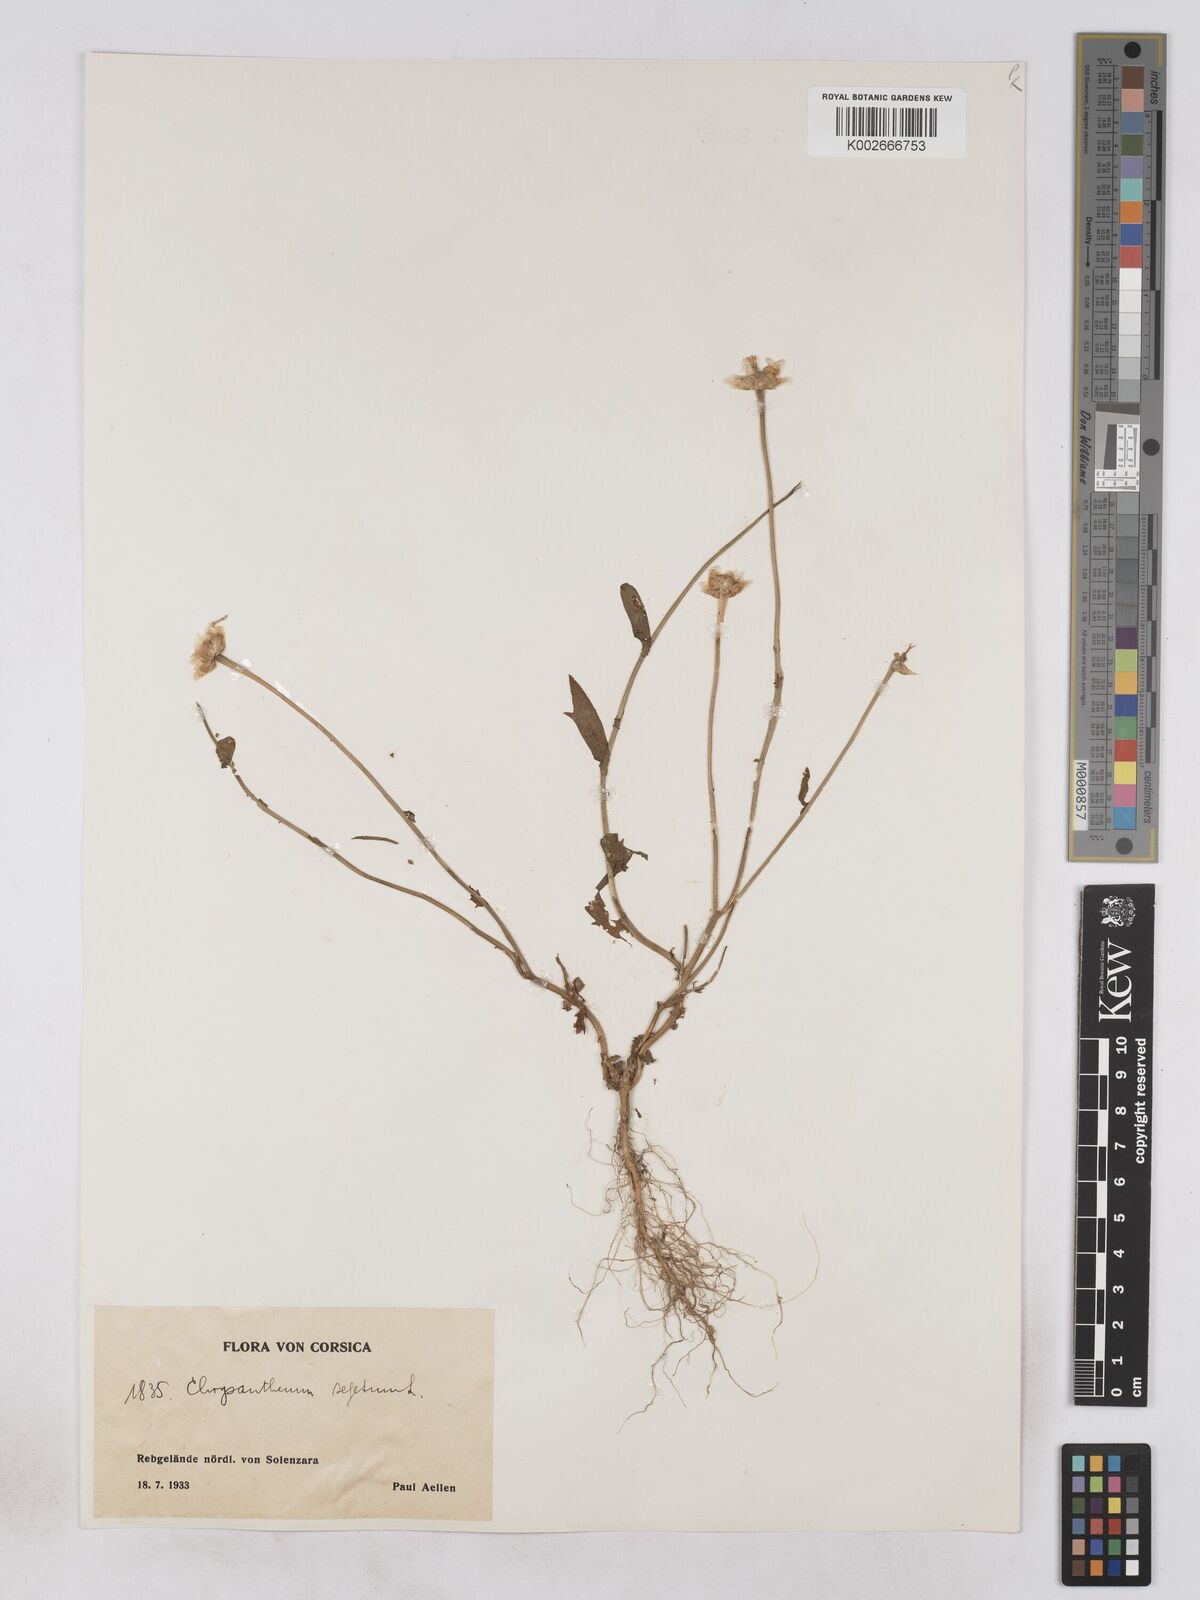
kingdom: Plantae
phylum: Tracheophyta
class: Magnoliopsida
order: Asterales
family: Asteraceae
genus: Glebionis
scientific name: Glebionis segetum
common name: Corndaisy
